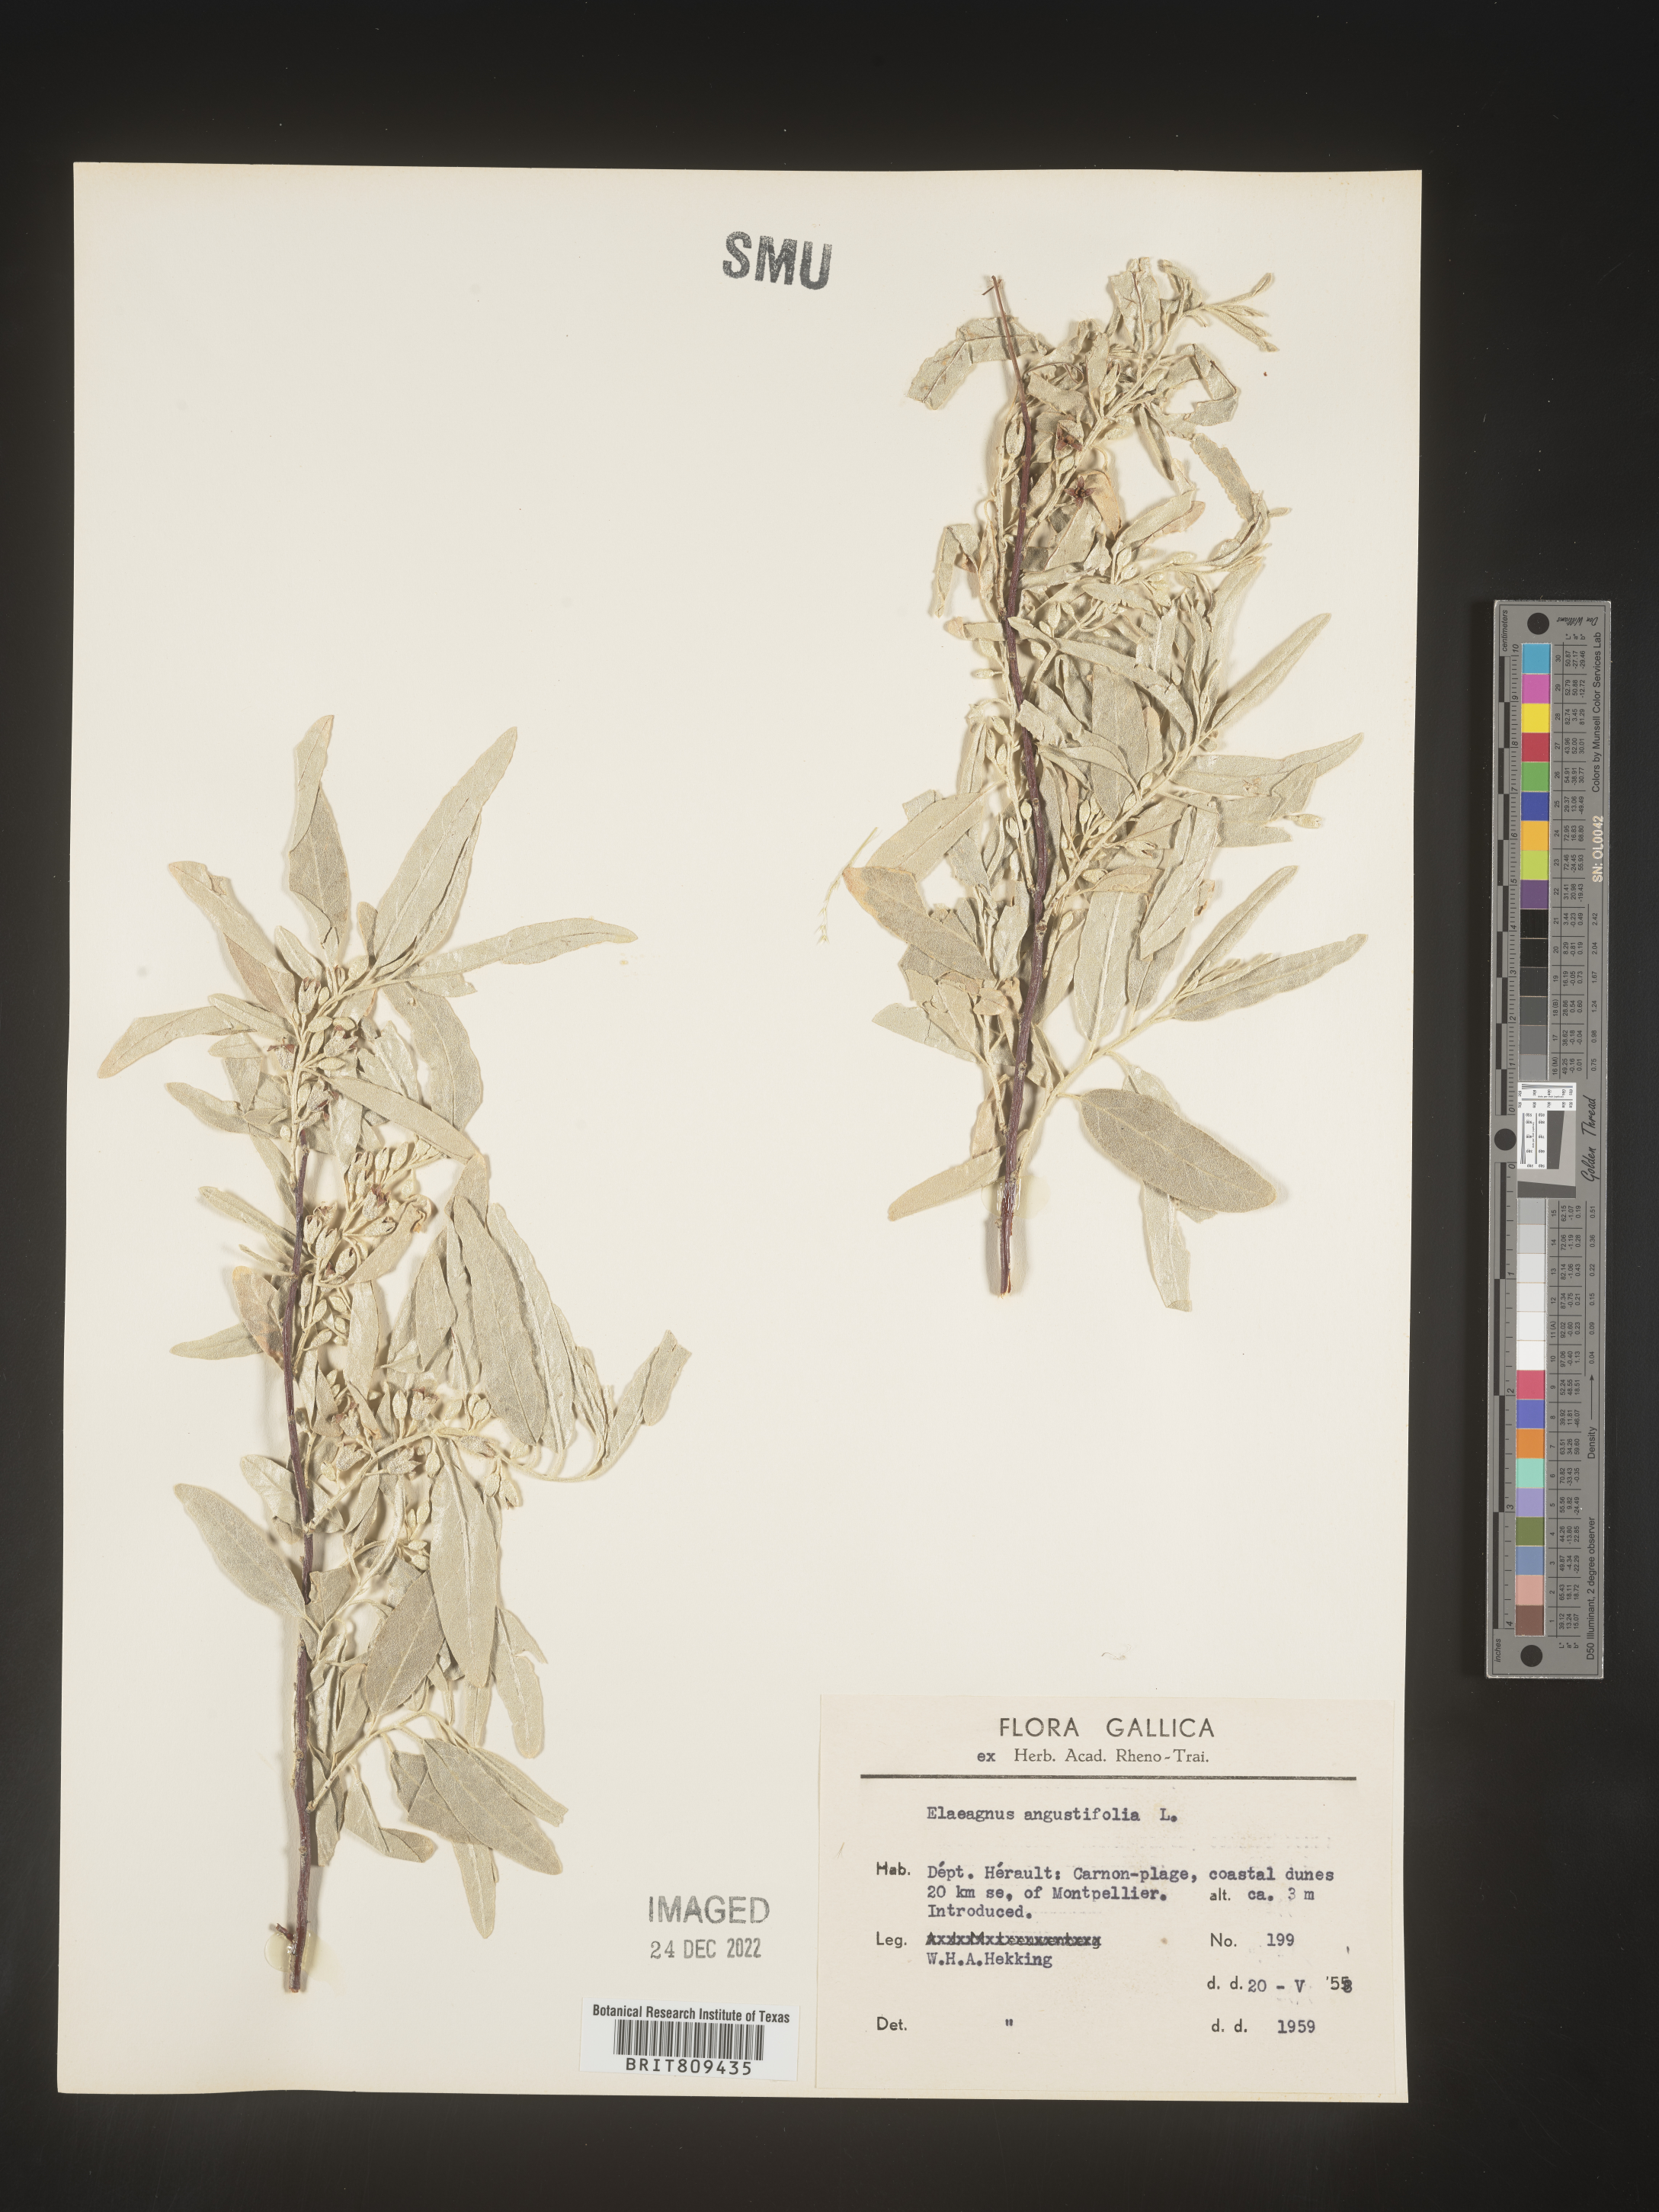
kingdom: Plantae
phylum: Tracheophyta
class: Magnoliopsida
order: Rosales
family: Elaeagnaceae
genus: Elaeagnus
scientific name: Elaeagnus
